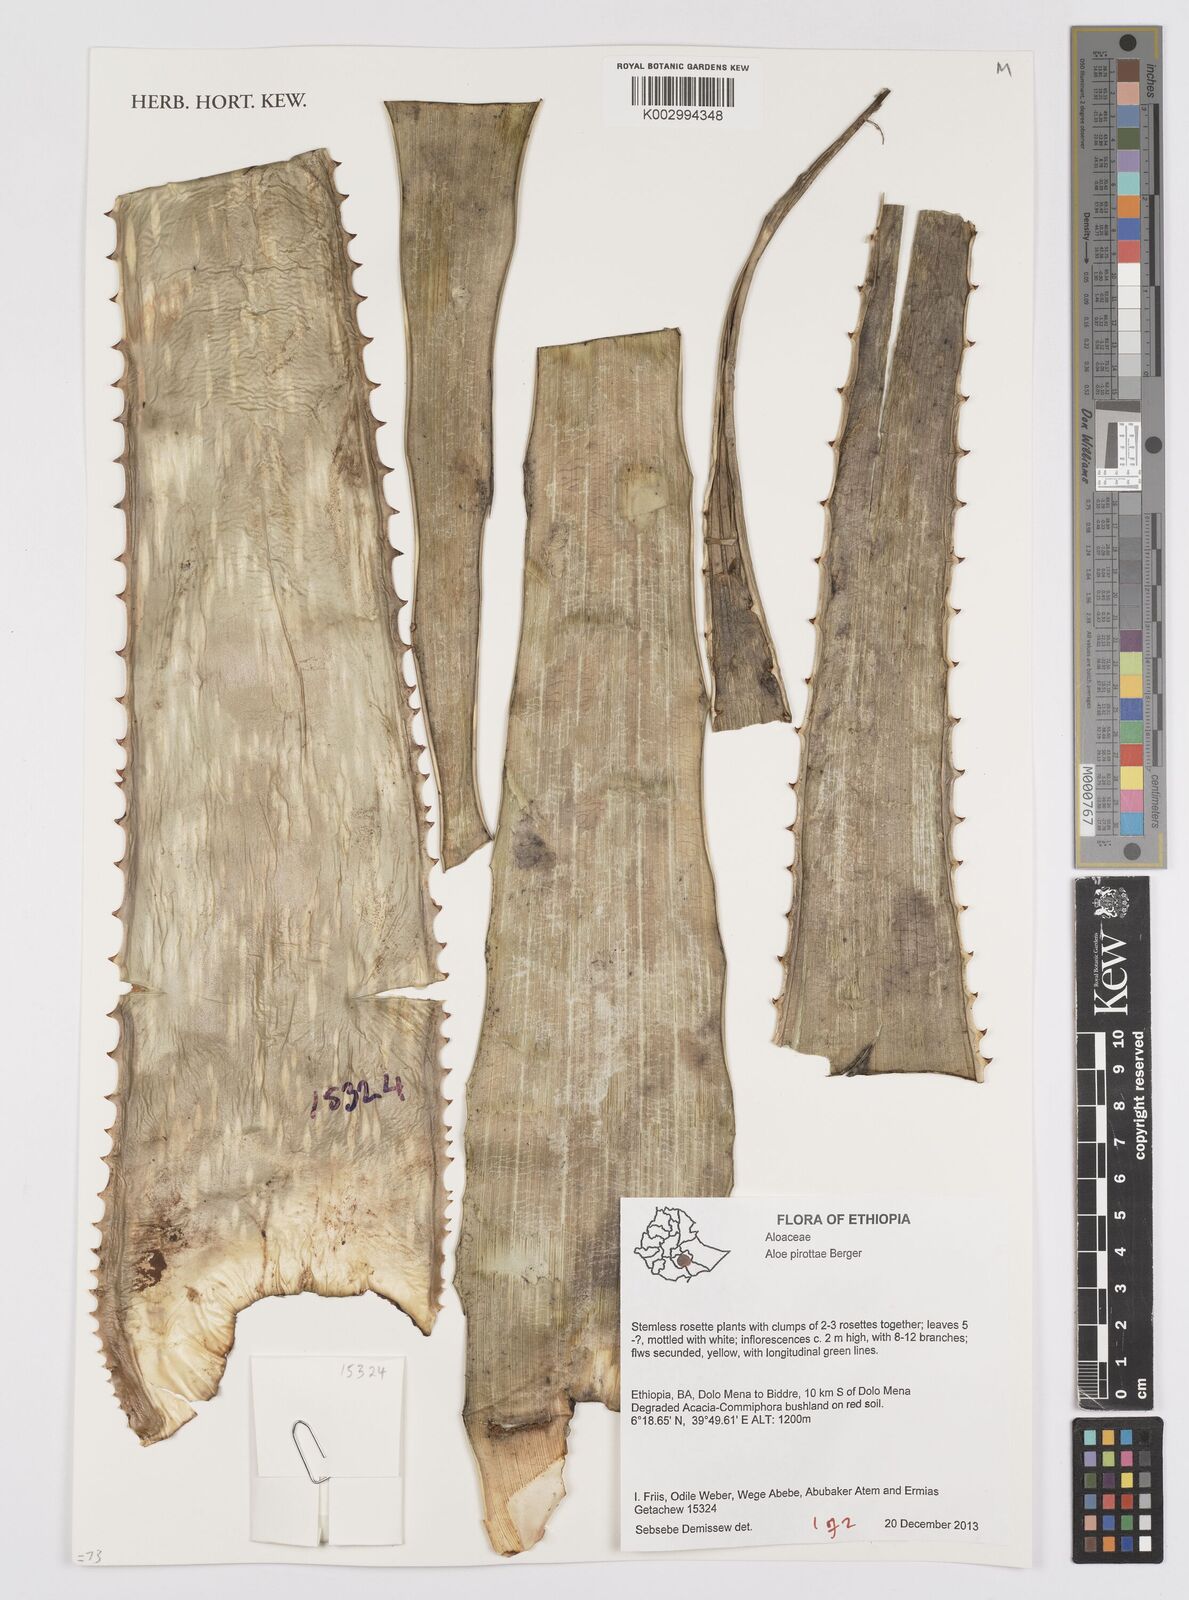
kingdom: Plantae
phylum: Tracheophyta
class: Liliopsida
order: Asparagales
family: Asphodelaceae
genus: Aloe
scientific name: Aloe pirottae
